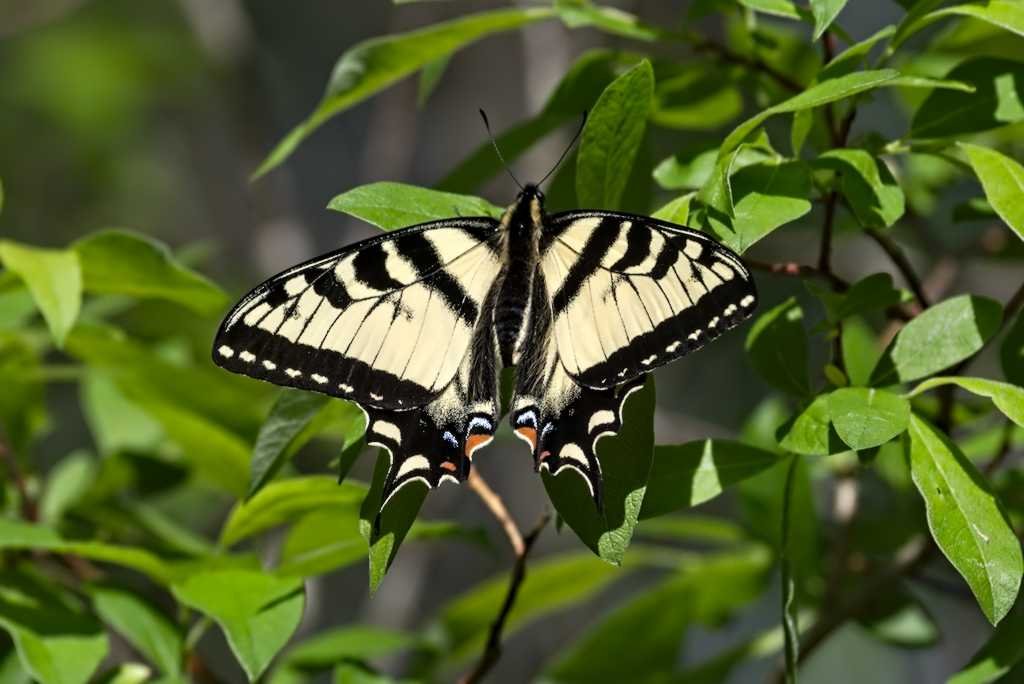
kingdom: Animalia
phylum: Arthropoda
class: Insecta
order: Lepidoptera
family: Papilionidae
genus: Pterourus
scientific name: Pterourus canadensis
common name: Canadian Tiger Swallowtail
